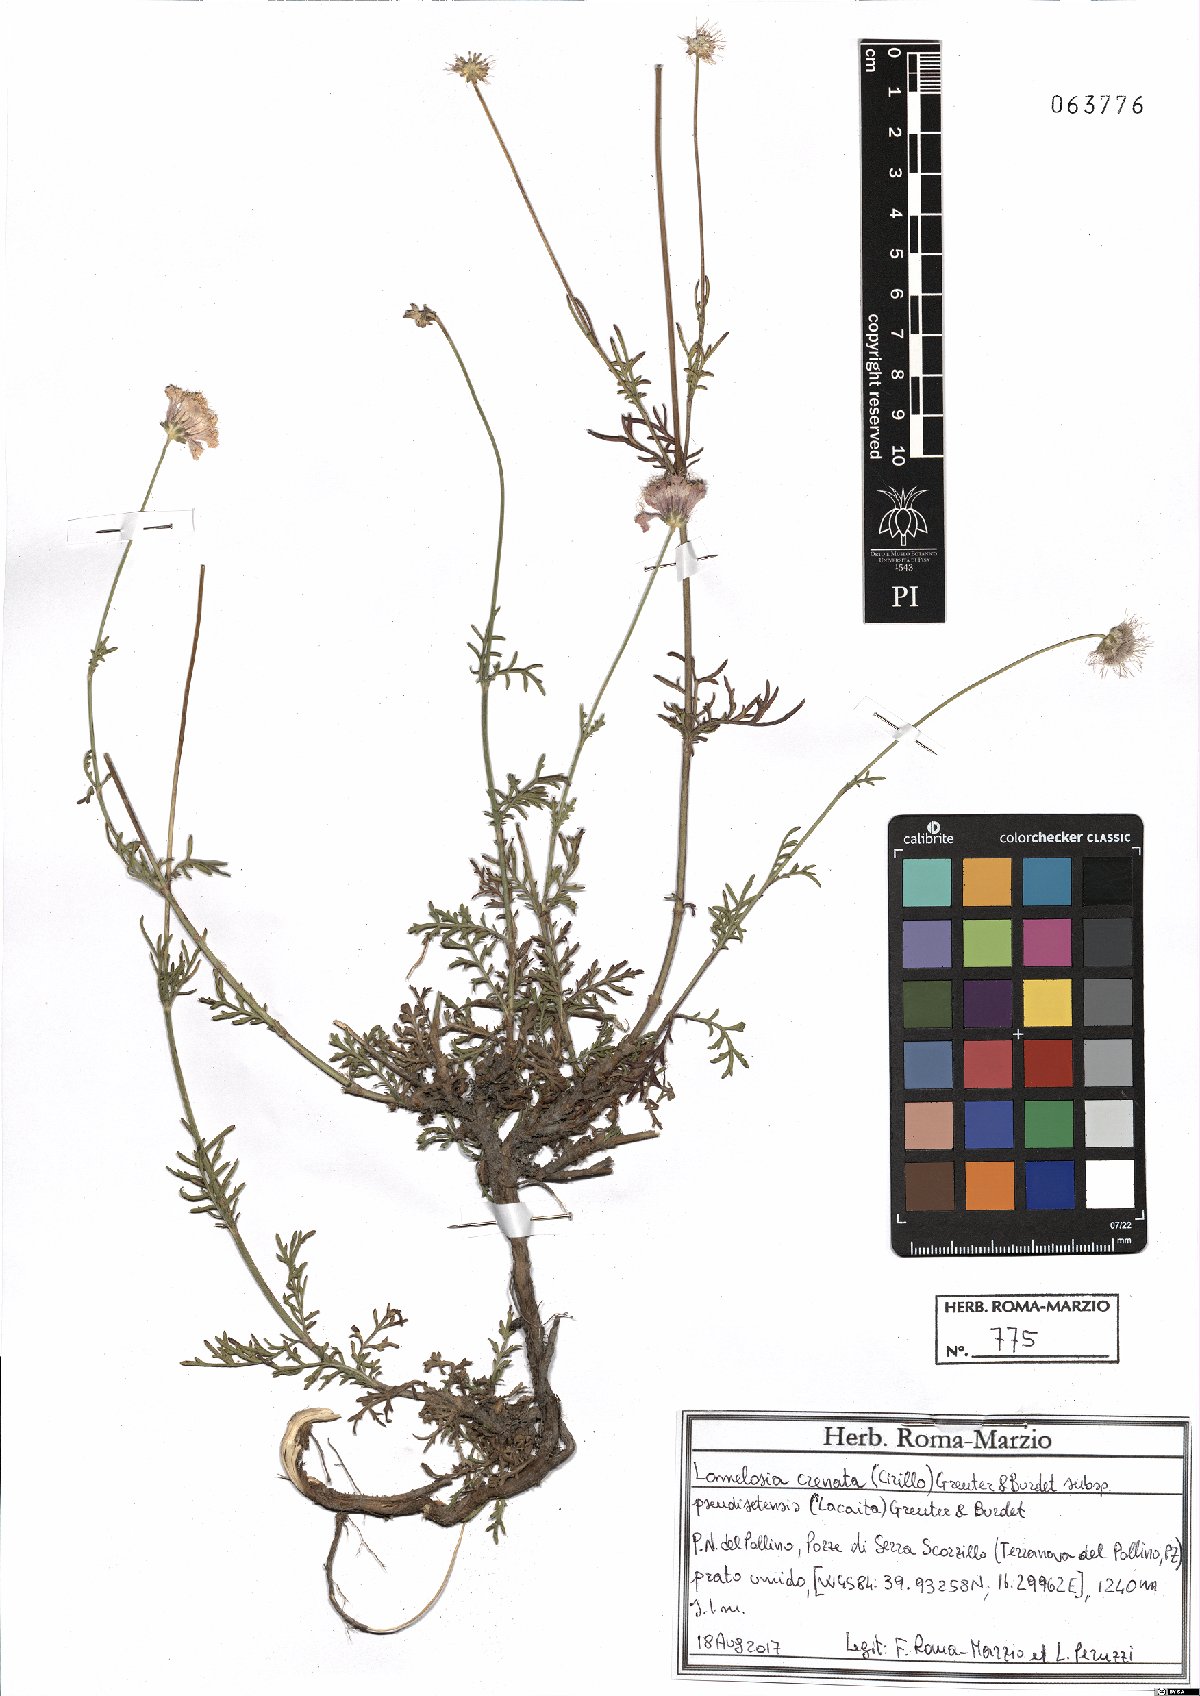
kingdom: Plantae
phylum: Tracheophyta
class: Magnoliopsida
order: Dipsacales
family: Caprifoliaceae
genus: Lomelosia
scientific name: Lomelosia pseudisetensis
